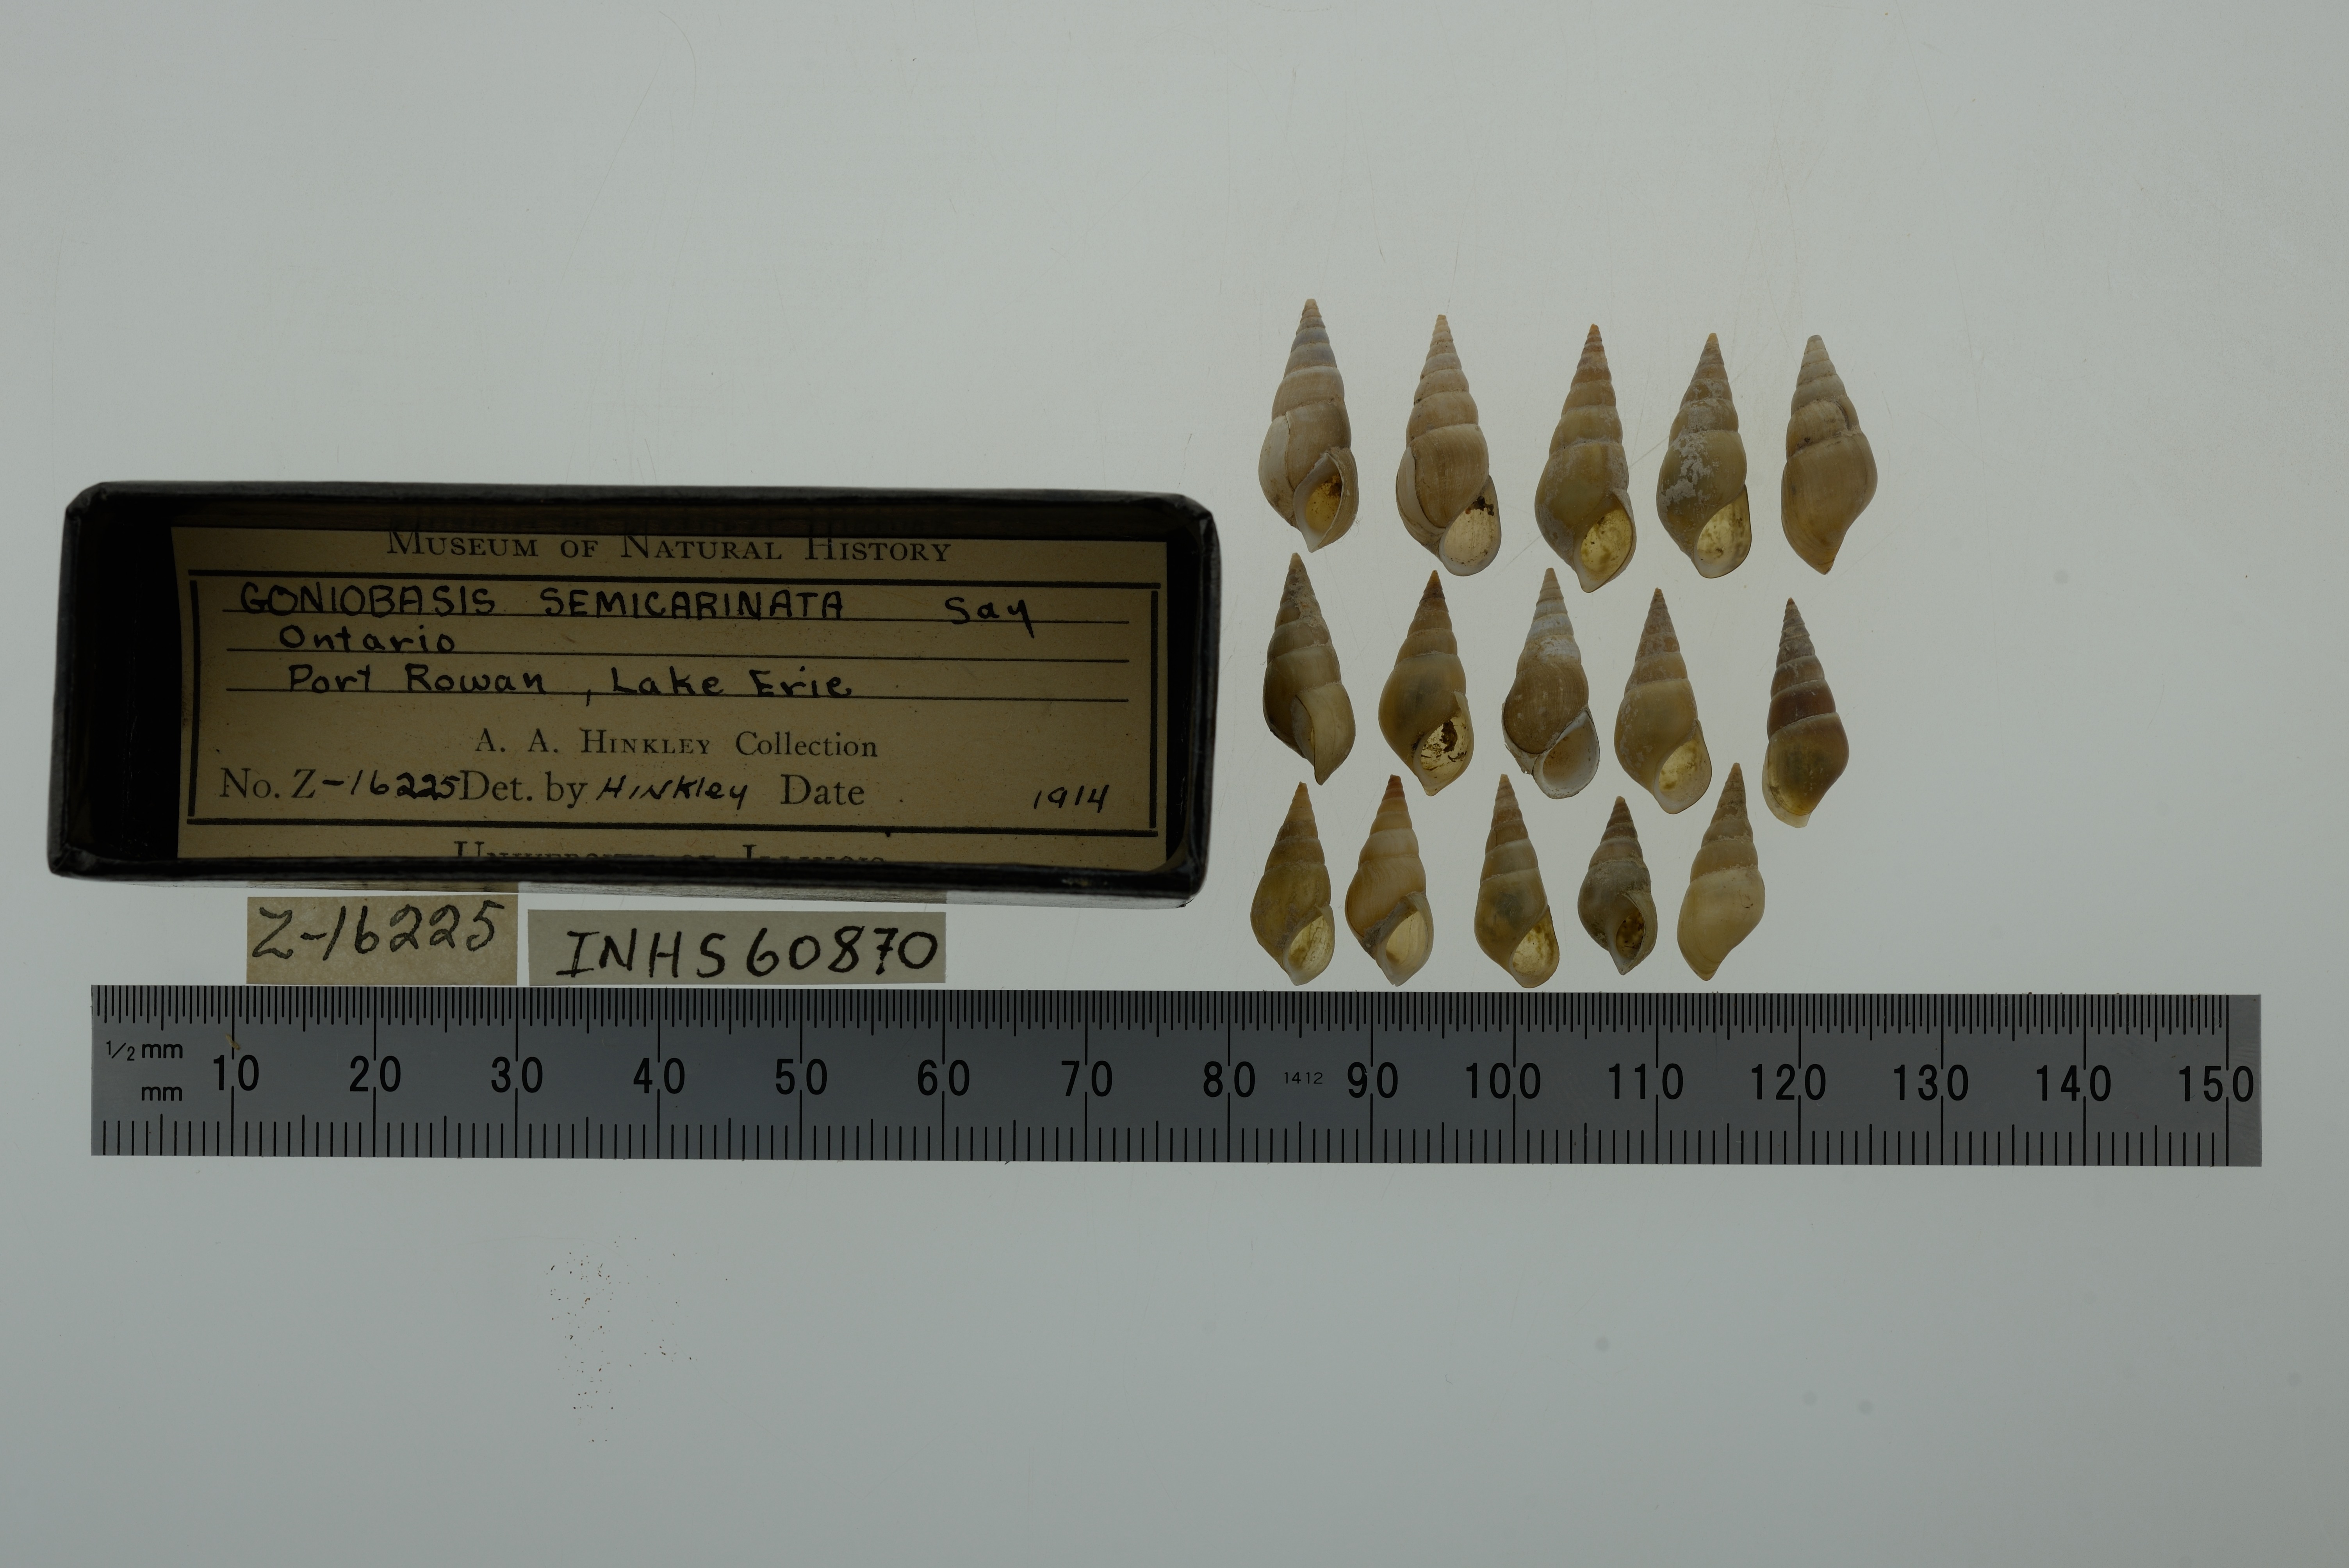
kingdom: Animalia
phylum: Mollusca
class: Gastropoda
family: Pleuroceridae
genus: Elimia
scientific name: Elimia semicarinata
